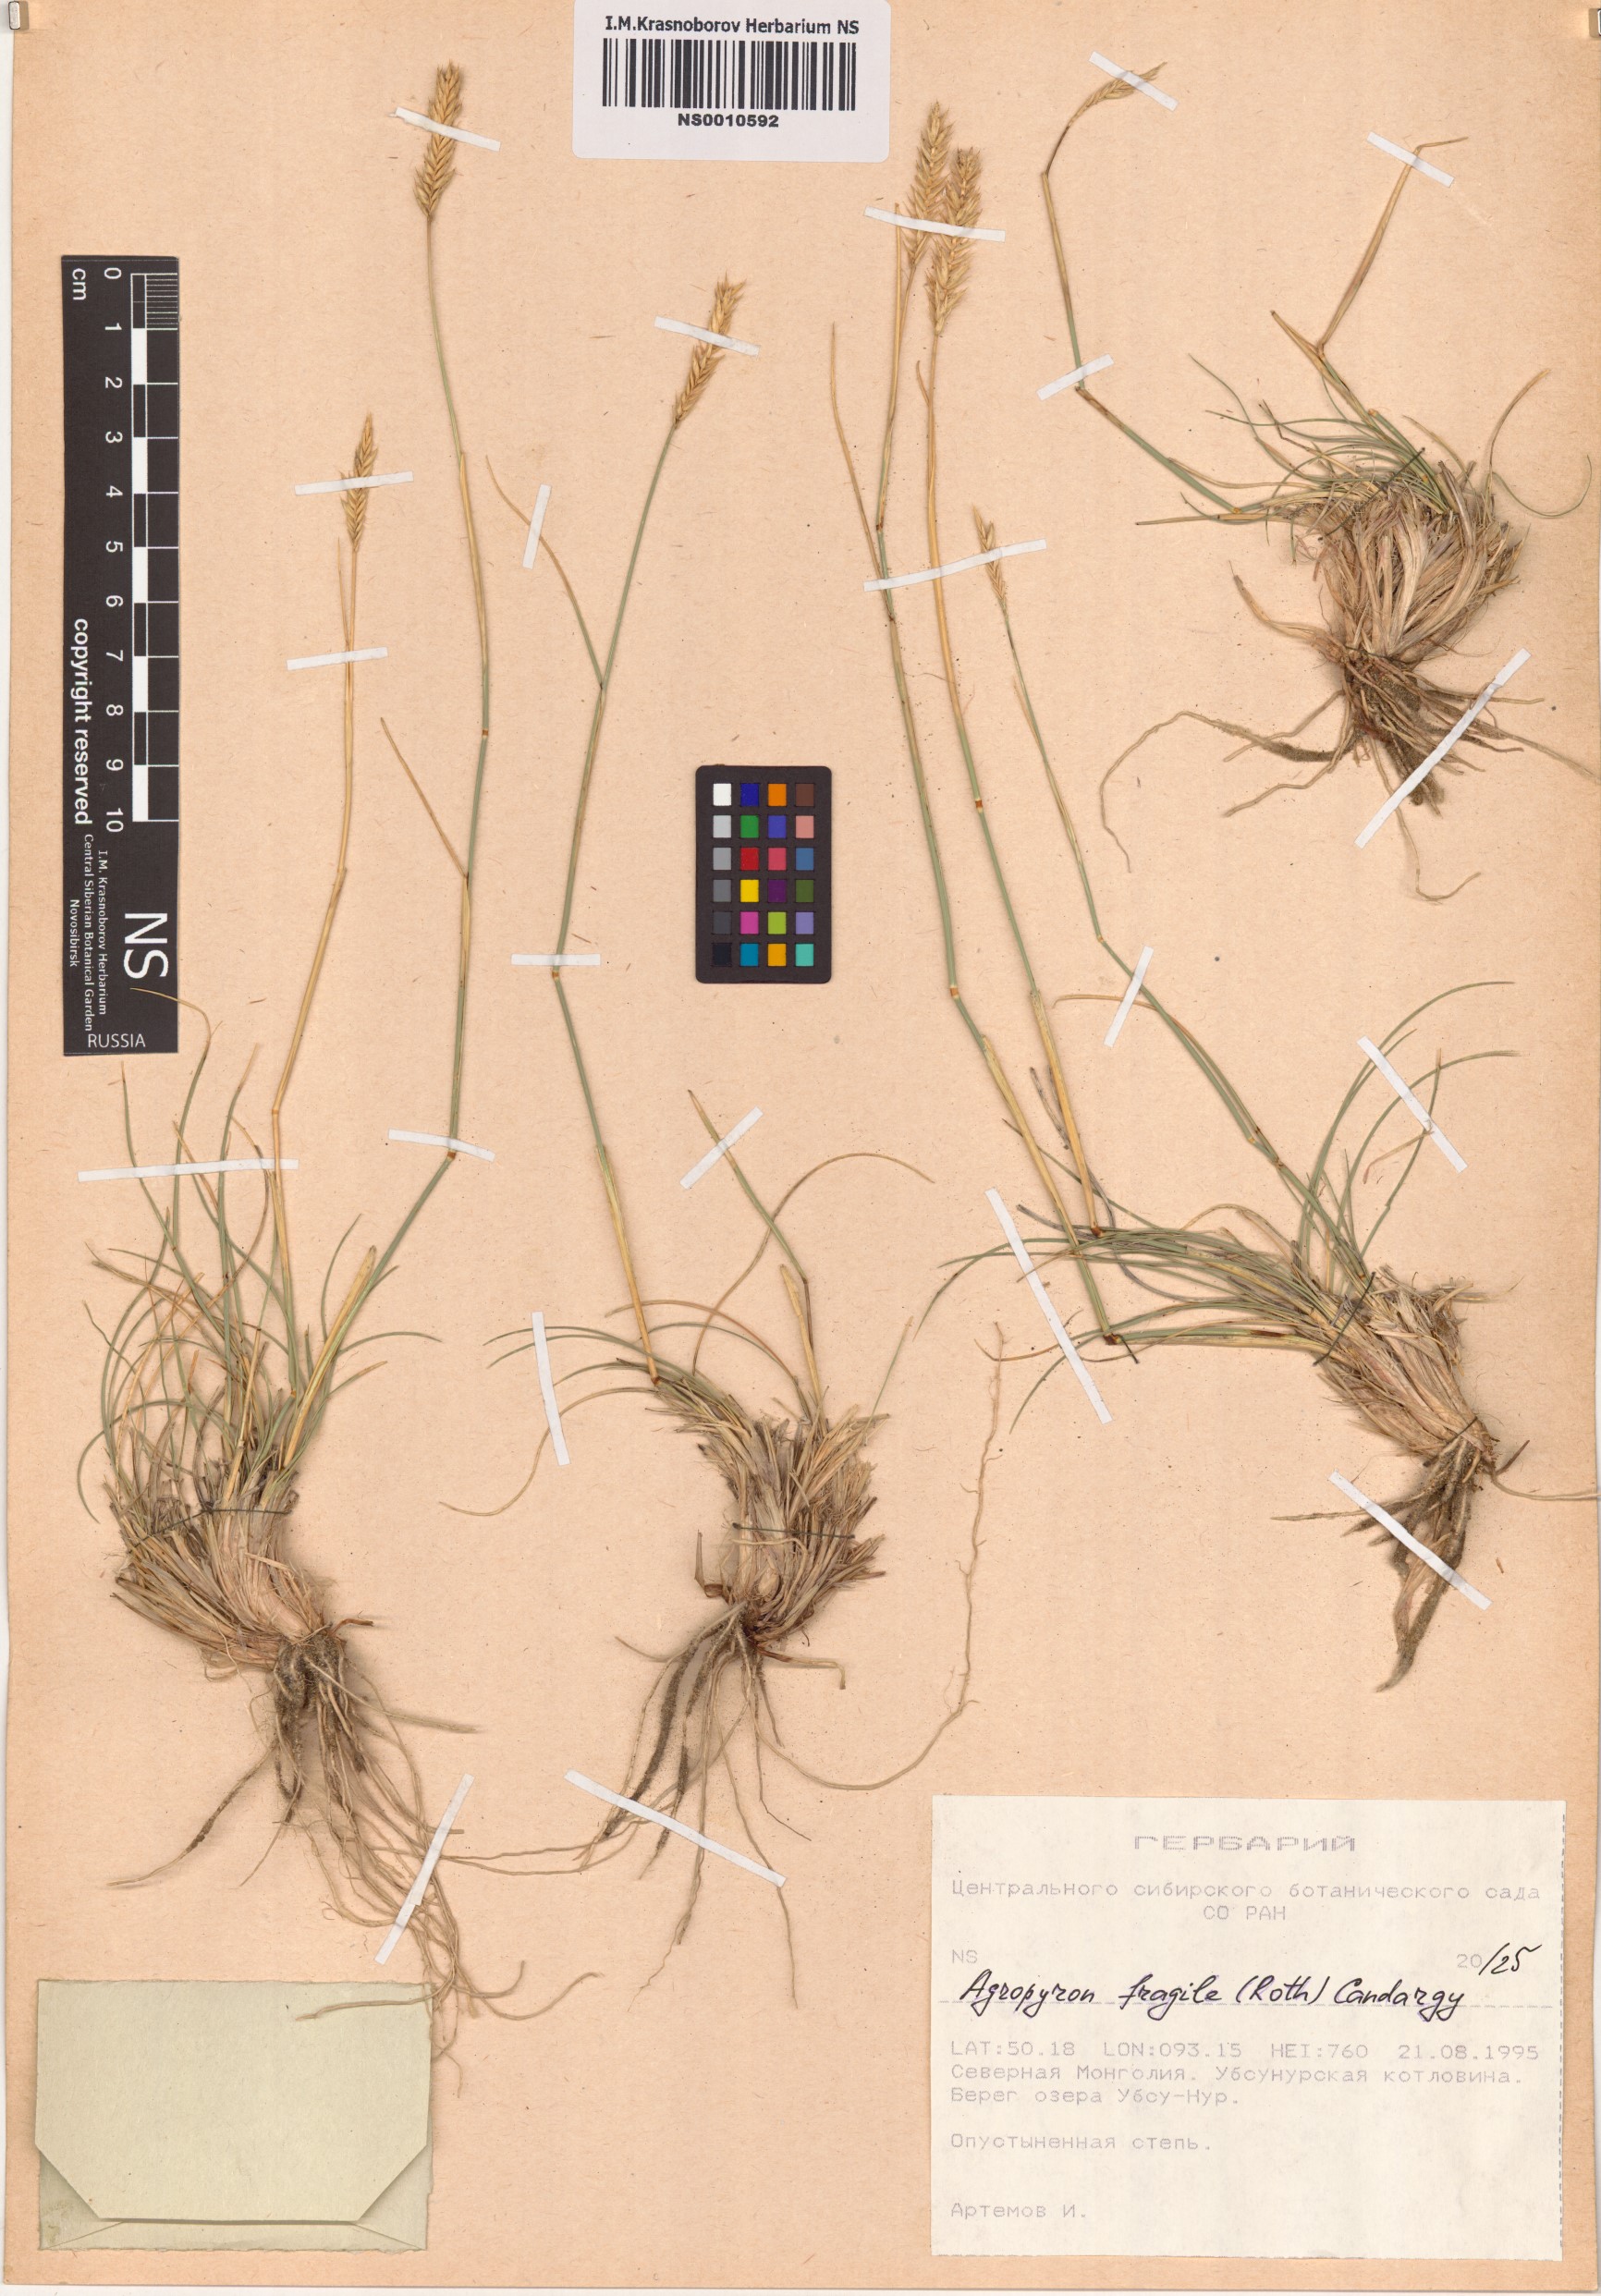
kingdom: Plantae
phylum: Tracheophyta
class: Liliopsida
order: Poales
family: Poaceae
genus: Agropyron
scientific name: Agropyron fragile
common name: Siberian wheatgrass
